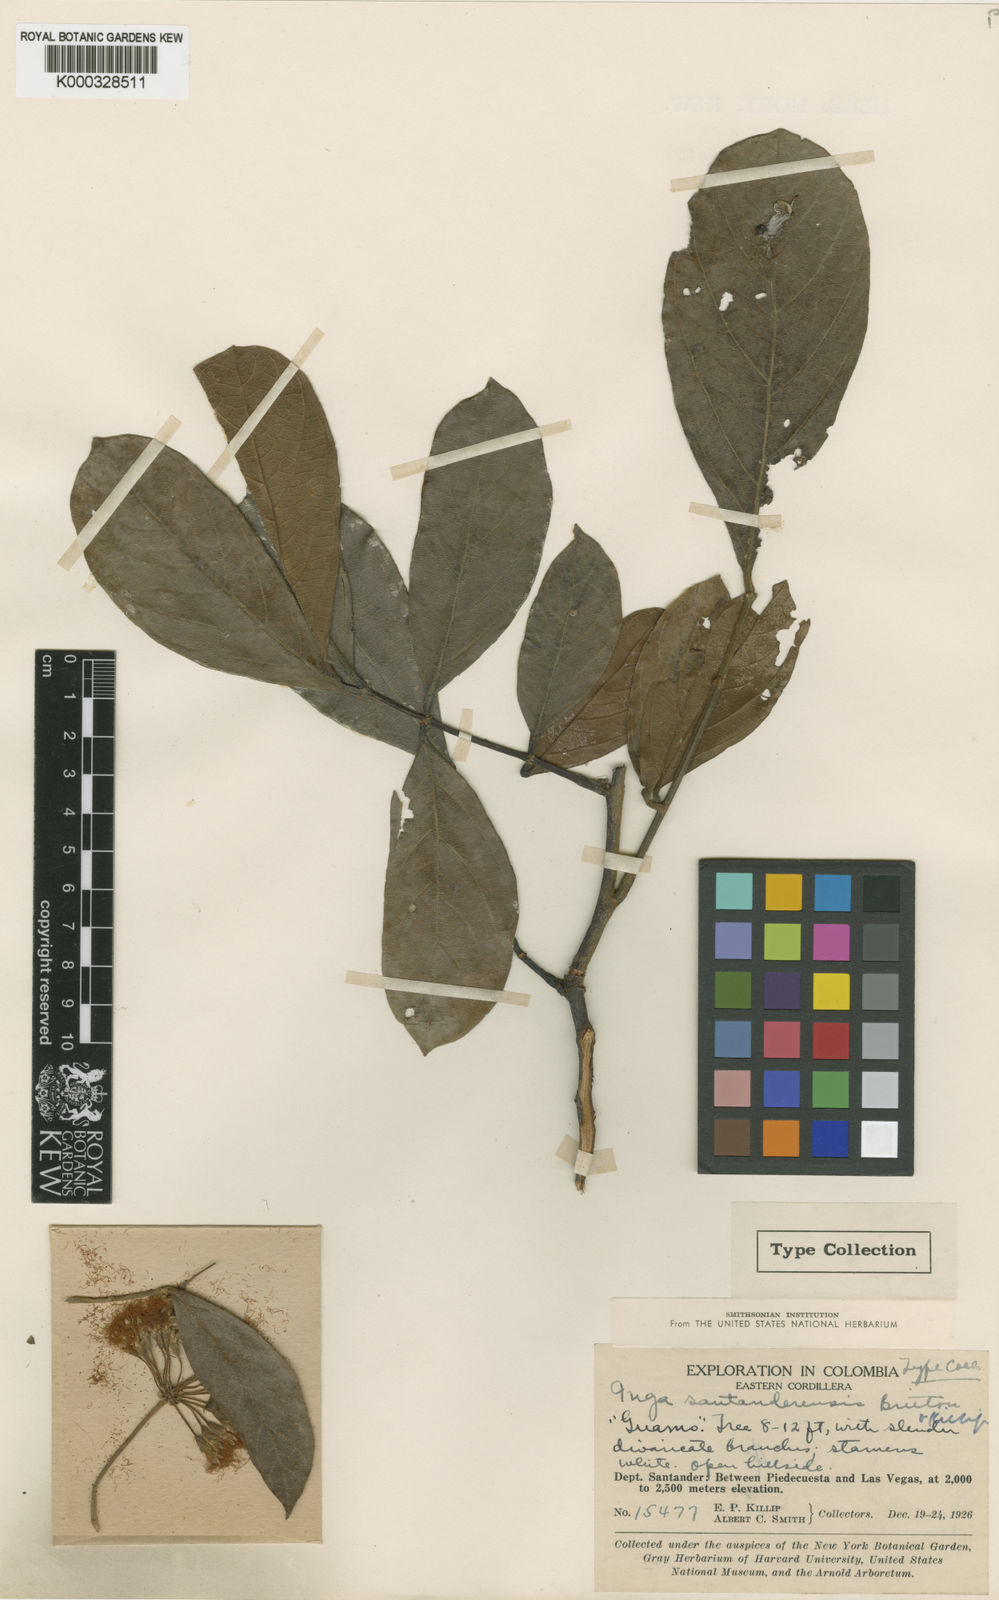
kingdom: Plantae
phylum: Tracheophyta
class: Magnoliopsida
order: Fabales
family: Fabaceae
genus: Inga
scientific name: Inga nobilis
